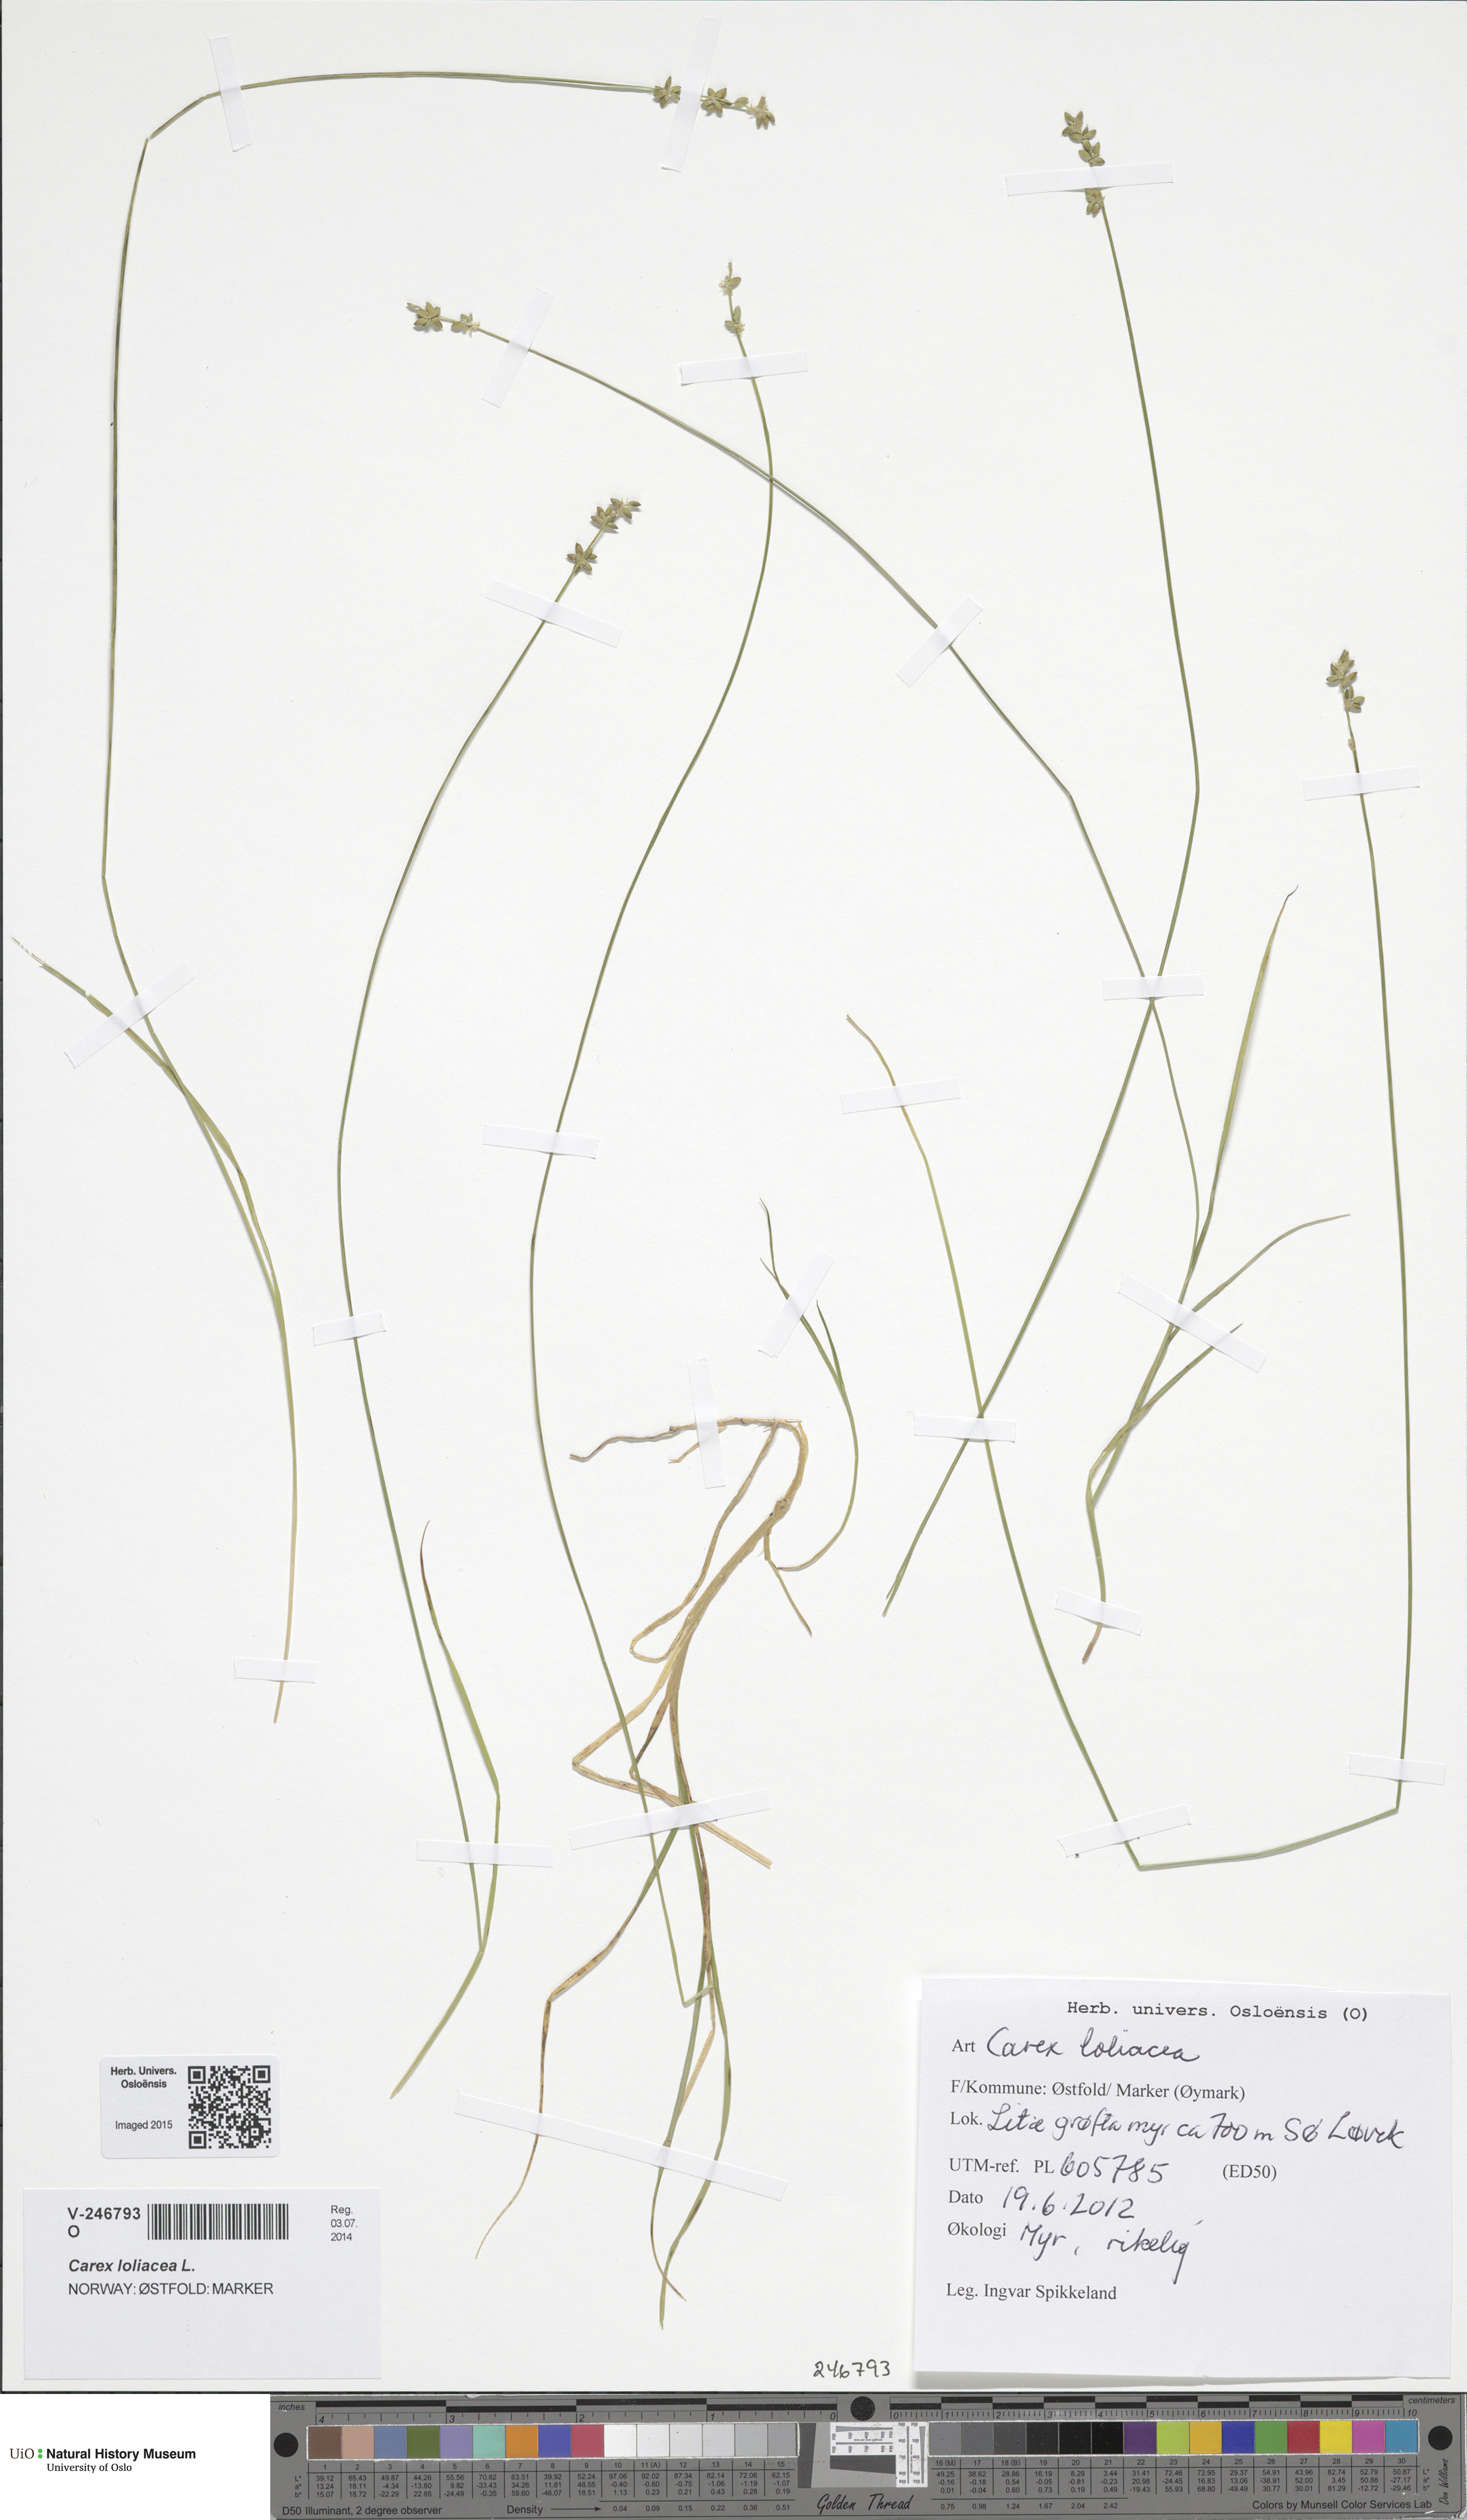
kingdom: Plantae
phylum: Tracheophyta
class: Liliopsida
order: Poales
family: Cyperaceae
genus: Carex
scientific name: Carex loliacea
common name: Ryegrass sedge
